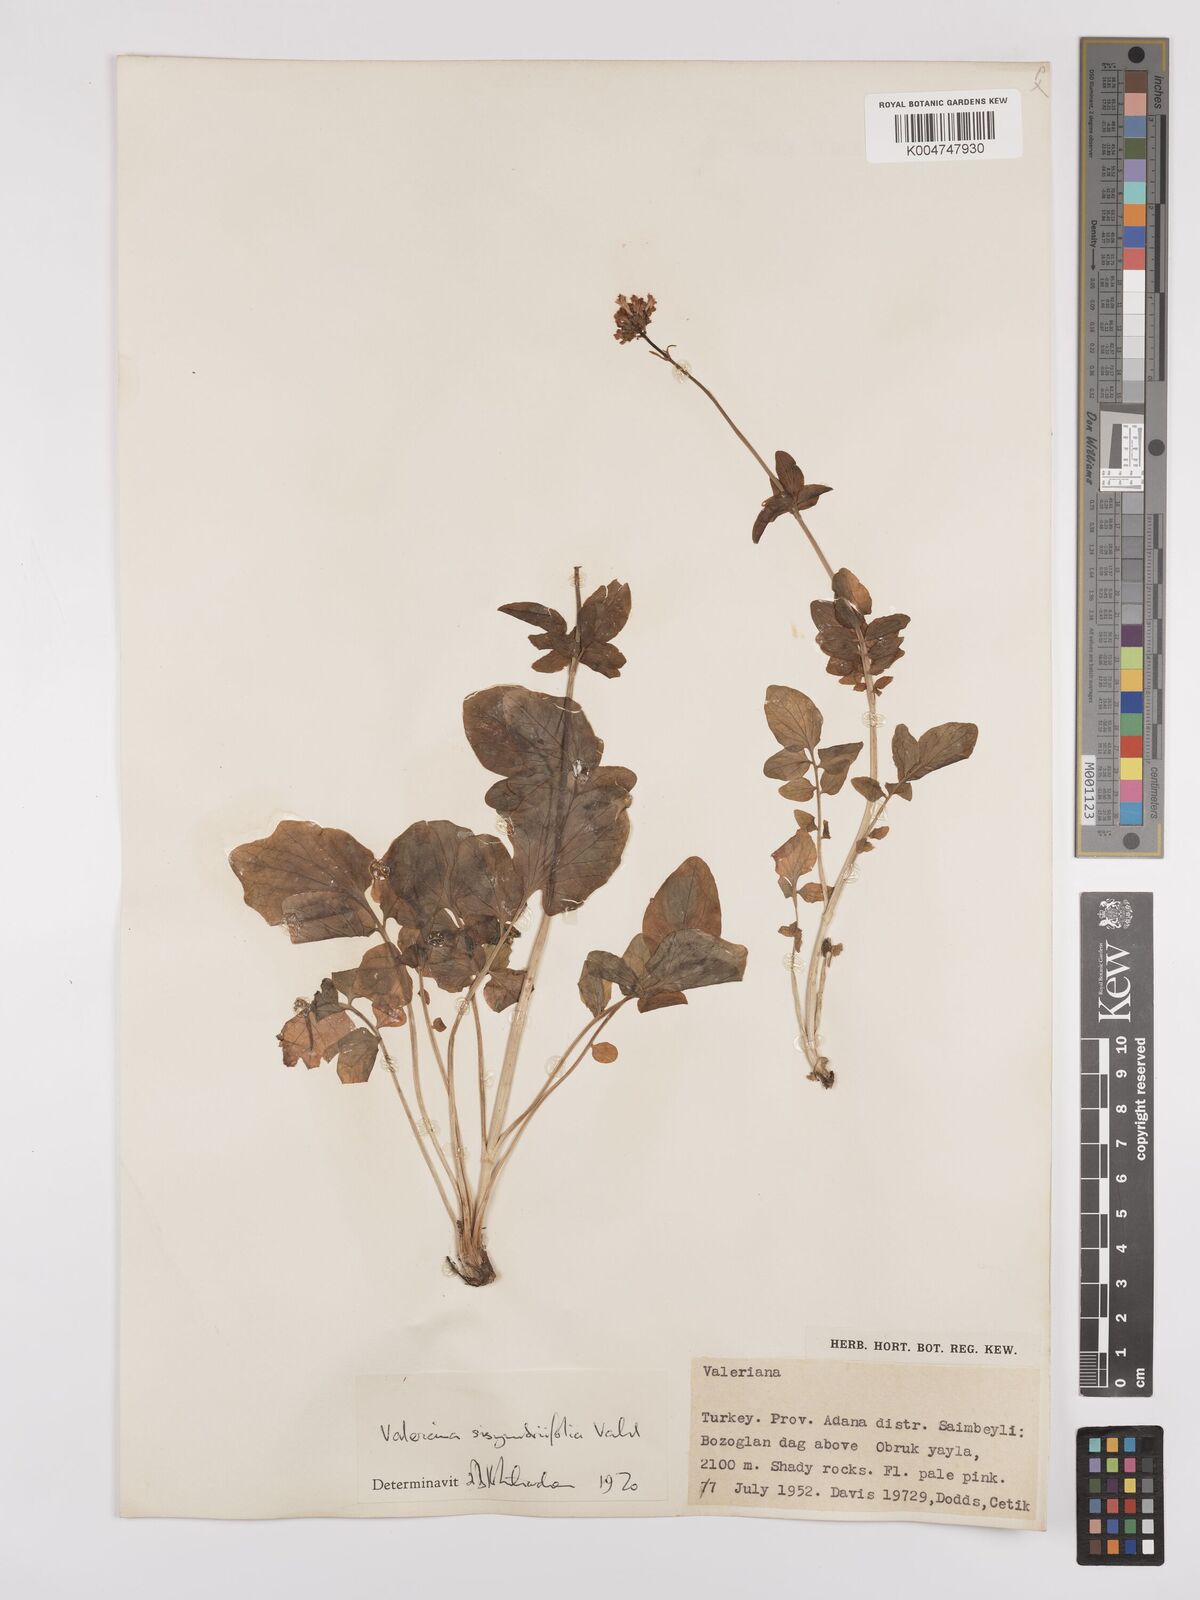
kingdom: Plantae
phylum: Tracheophyta
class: Magnoliopsida
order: Dipsacales
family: Caprifoliaceae
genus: Valeriana
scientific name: Valeriana
